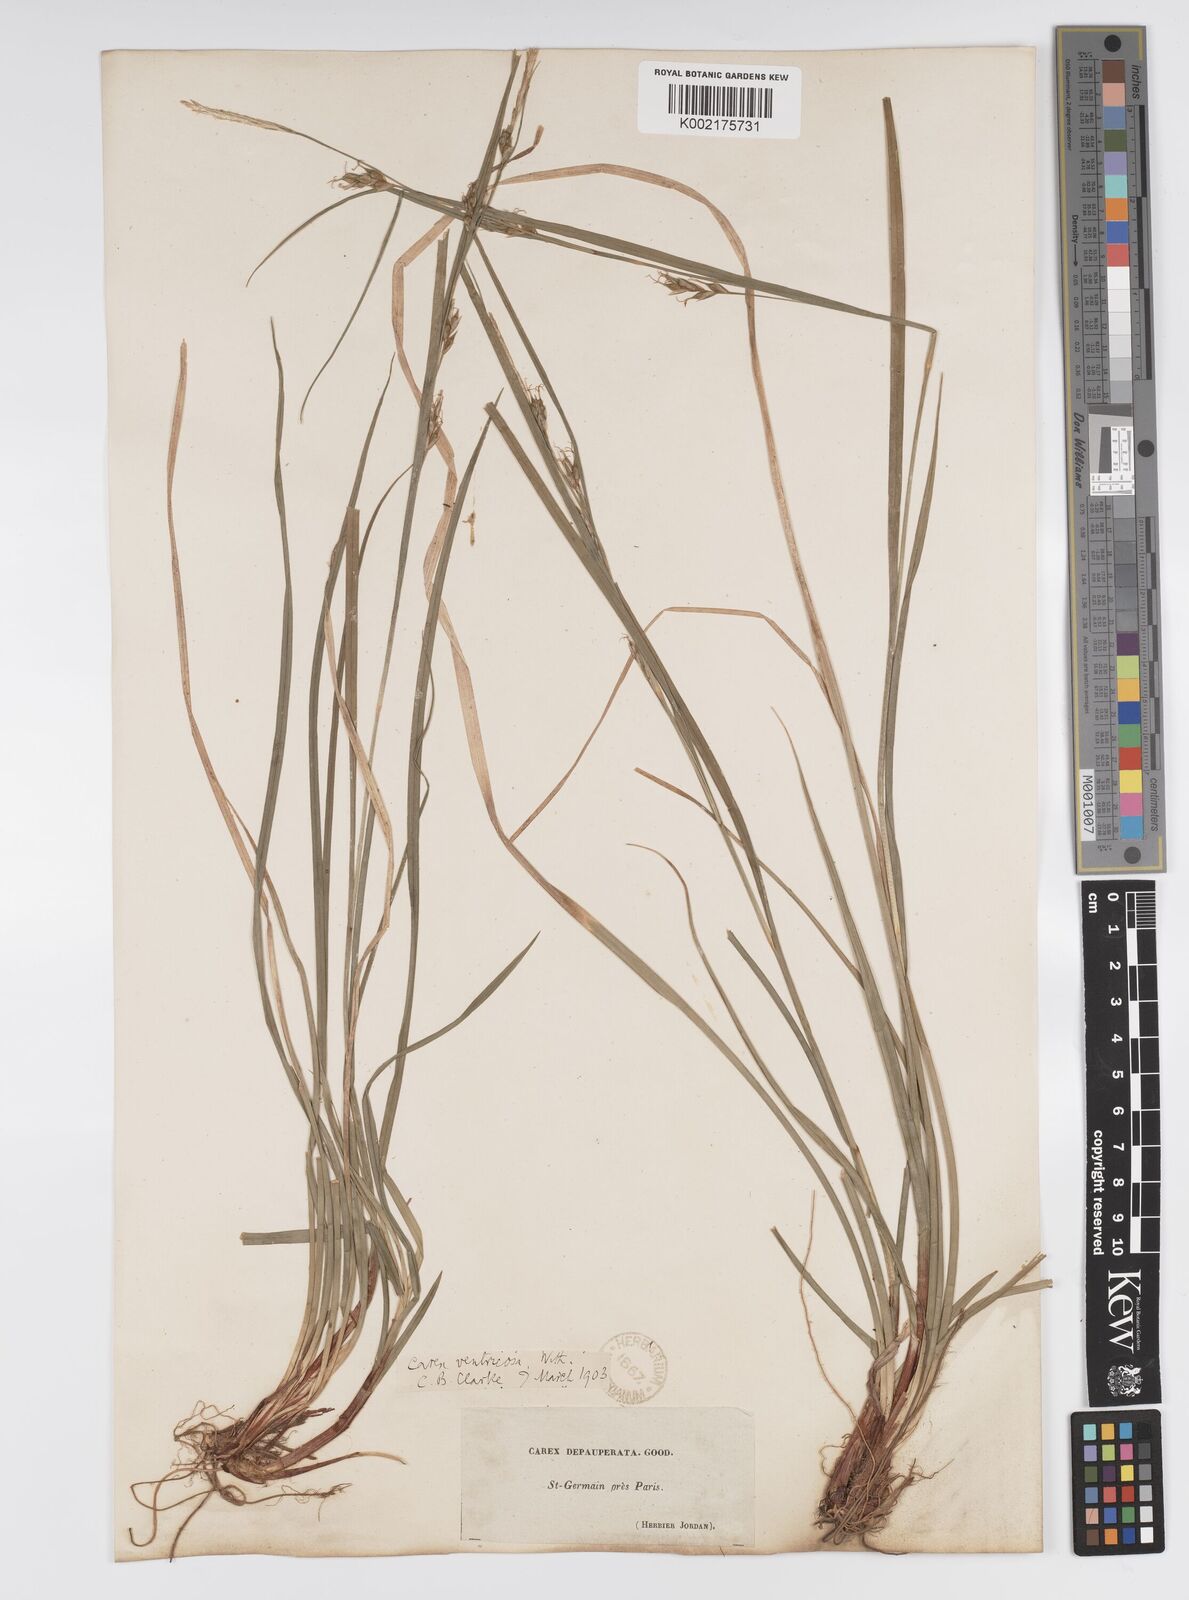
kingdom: Plantae
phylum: Tracheophyta
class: Liliopsida
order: Poales
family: Cyperaceae
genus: Carex
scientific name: Carex
